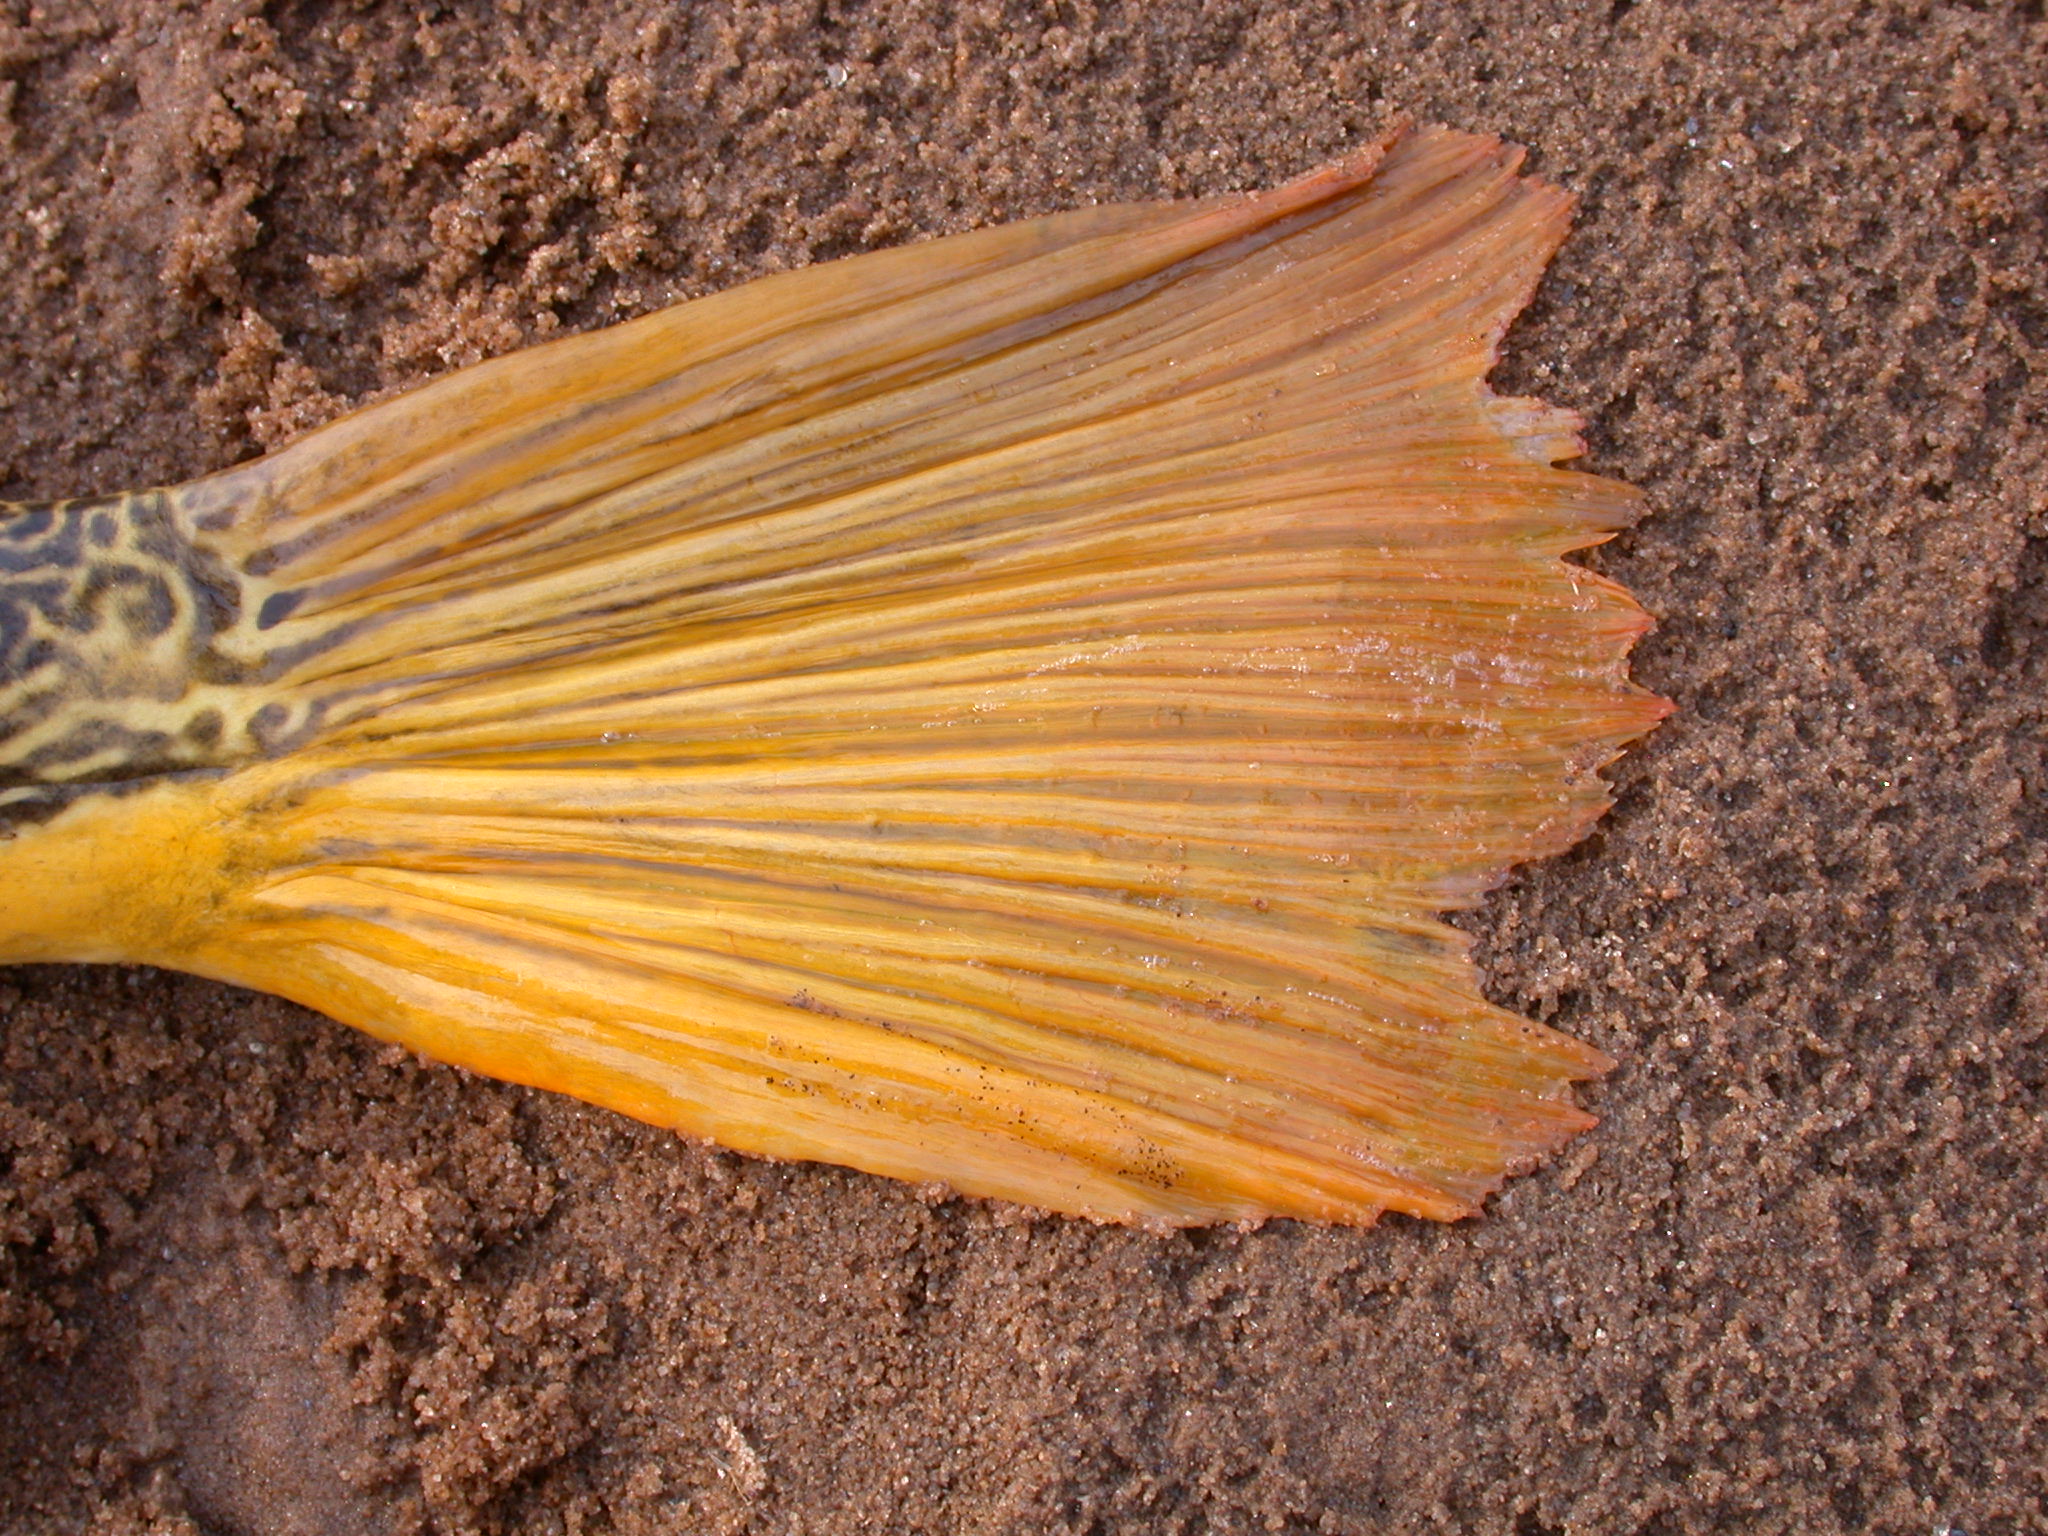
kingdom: Animalia
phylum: Chordata
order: Tetraodontiformes
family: Tetraodontidae
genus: Tetraodon
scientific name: Tetraodon mbu
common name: Fresh water puffer fish
